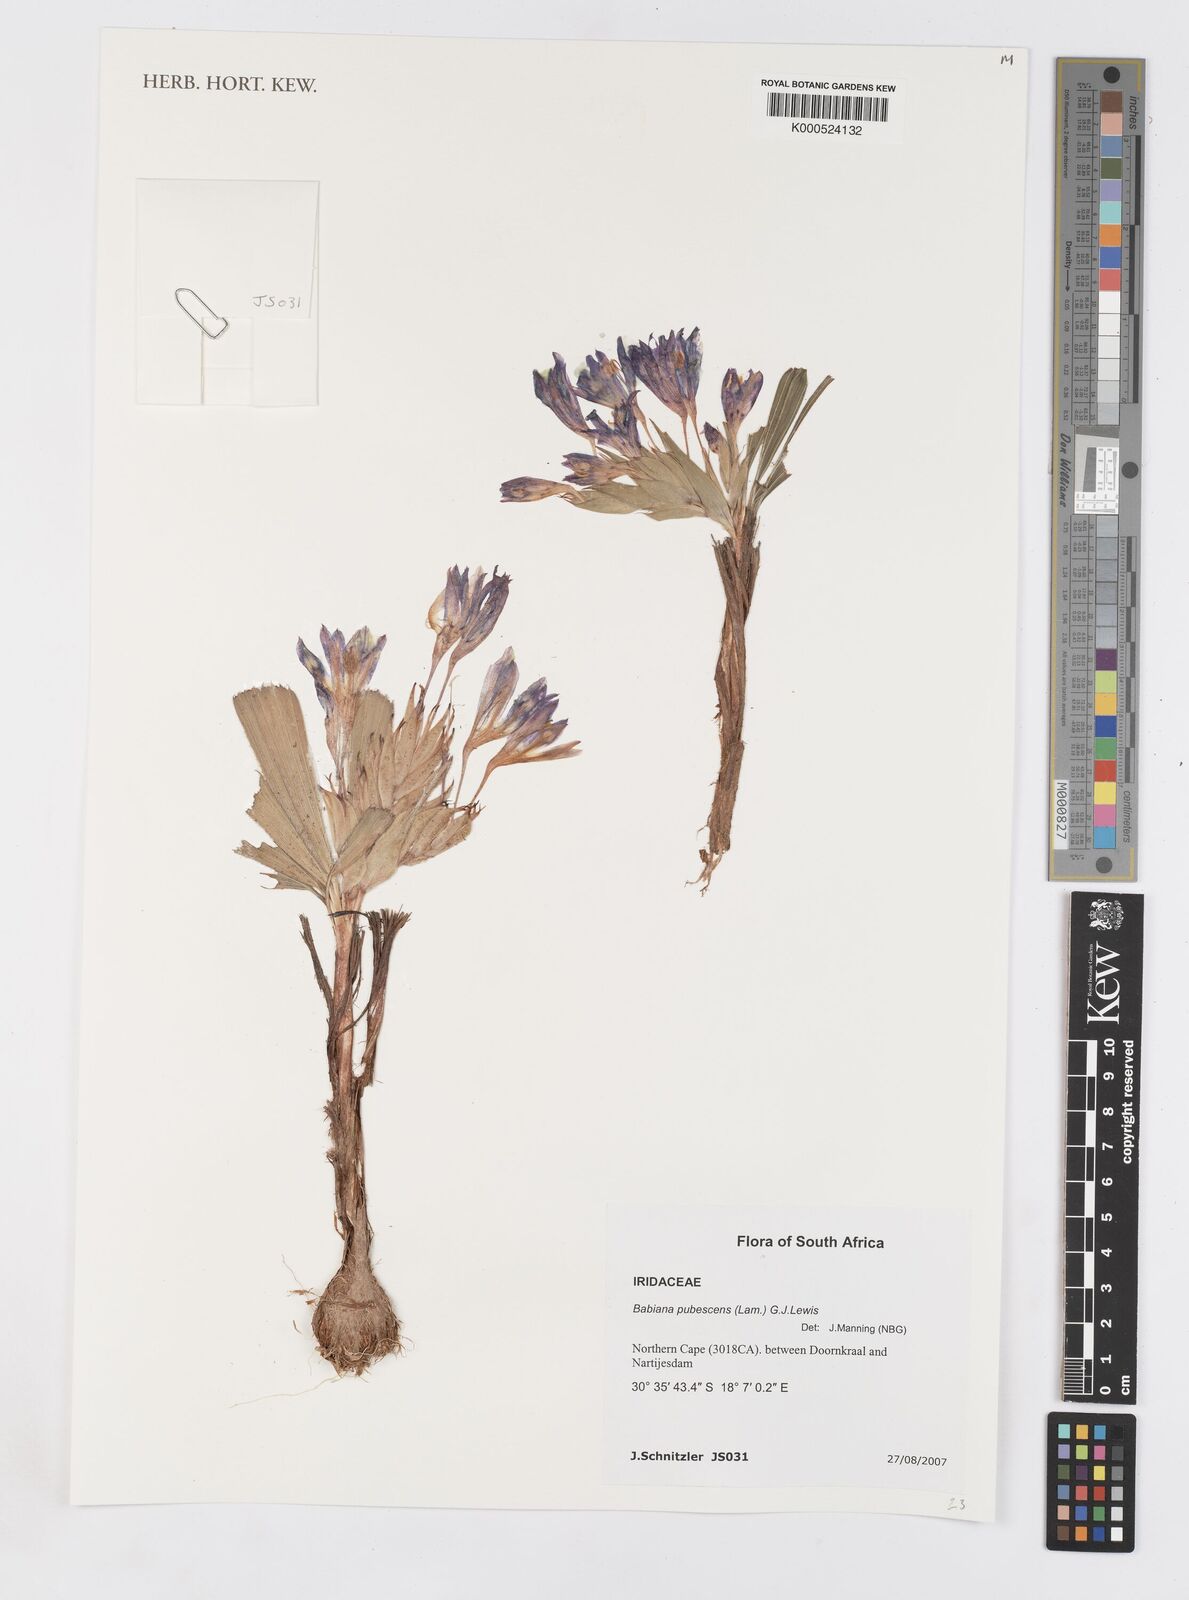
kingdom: Plantae
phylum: Tracheophyta
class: Liliopsida
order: Asparagales
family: Iridaceae
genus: Babiana
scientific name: Babiana pubescens
